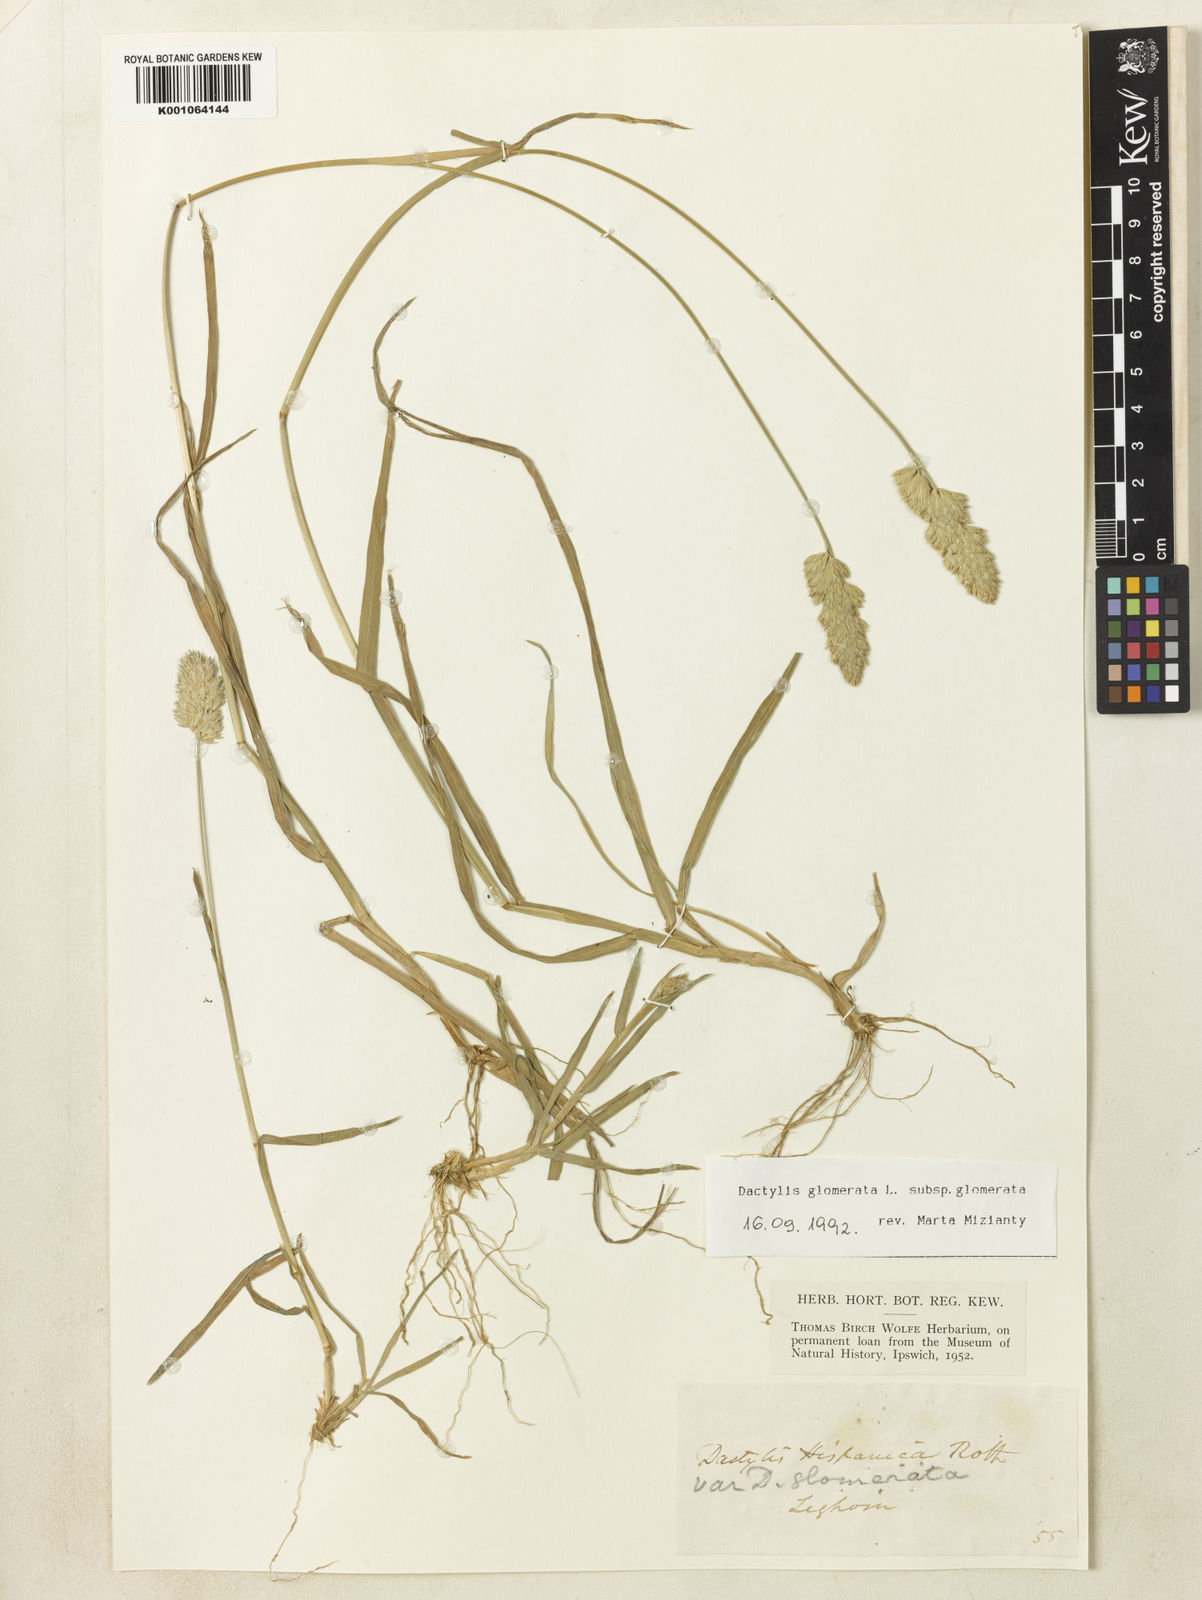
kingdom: Plantae
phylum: Tracheophyta
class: Liliopsida
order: Poales
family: Poaceae
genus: Dactylis
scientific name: Dactylis glomerata
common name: Orchardgrass
